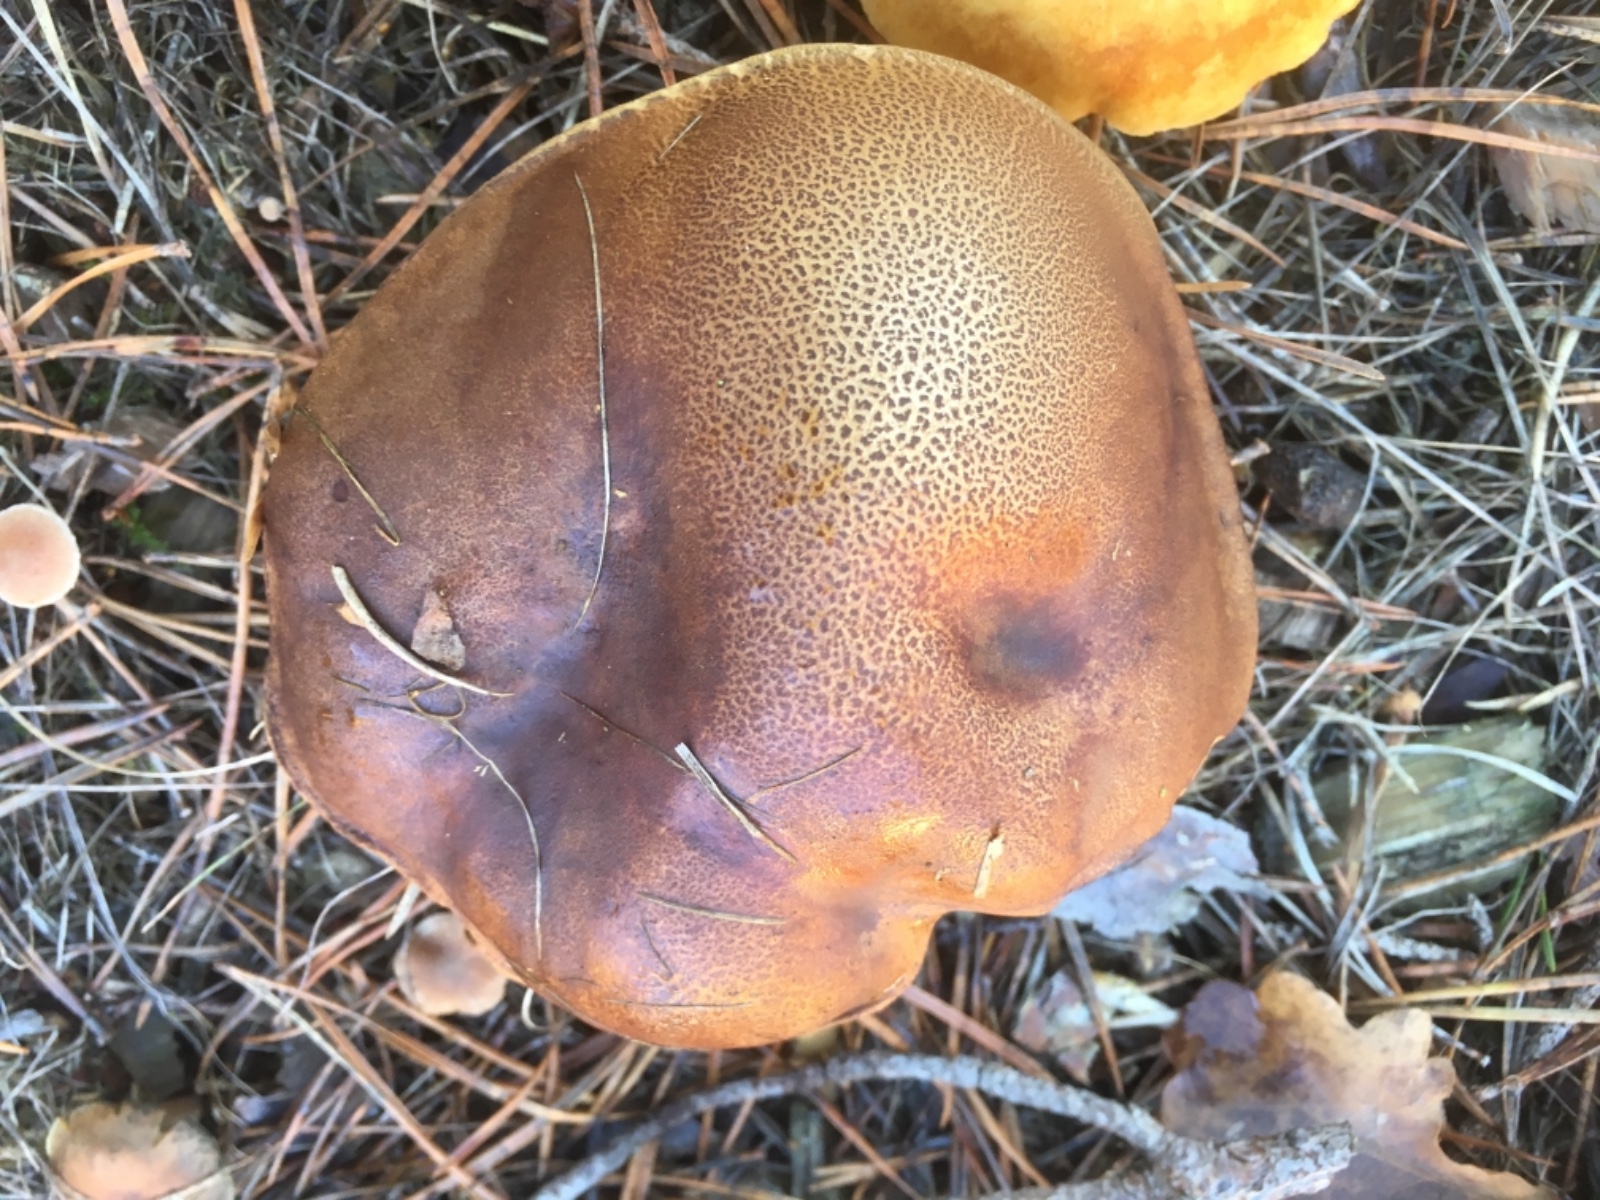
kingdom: Fungi
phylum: Basidiomycota
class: Agaricomycetes
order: Boletales
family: Boletaceae
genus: Imleria
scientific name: Imleria badia
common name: brunstokket rørhat
